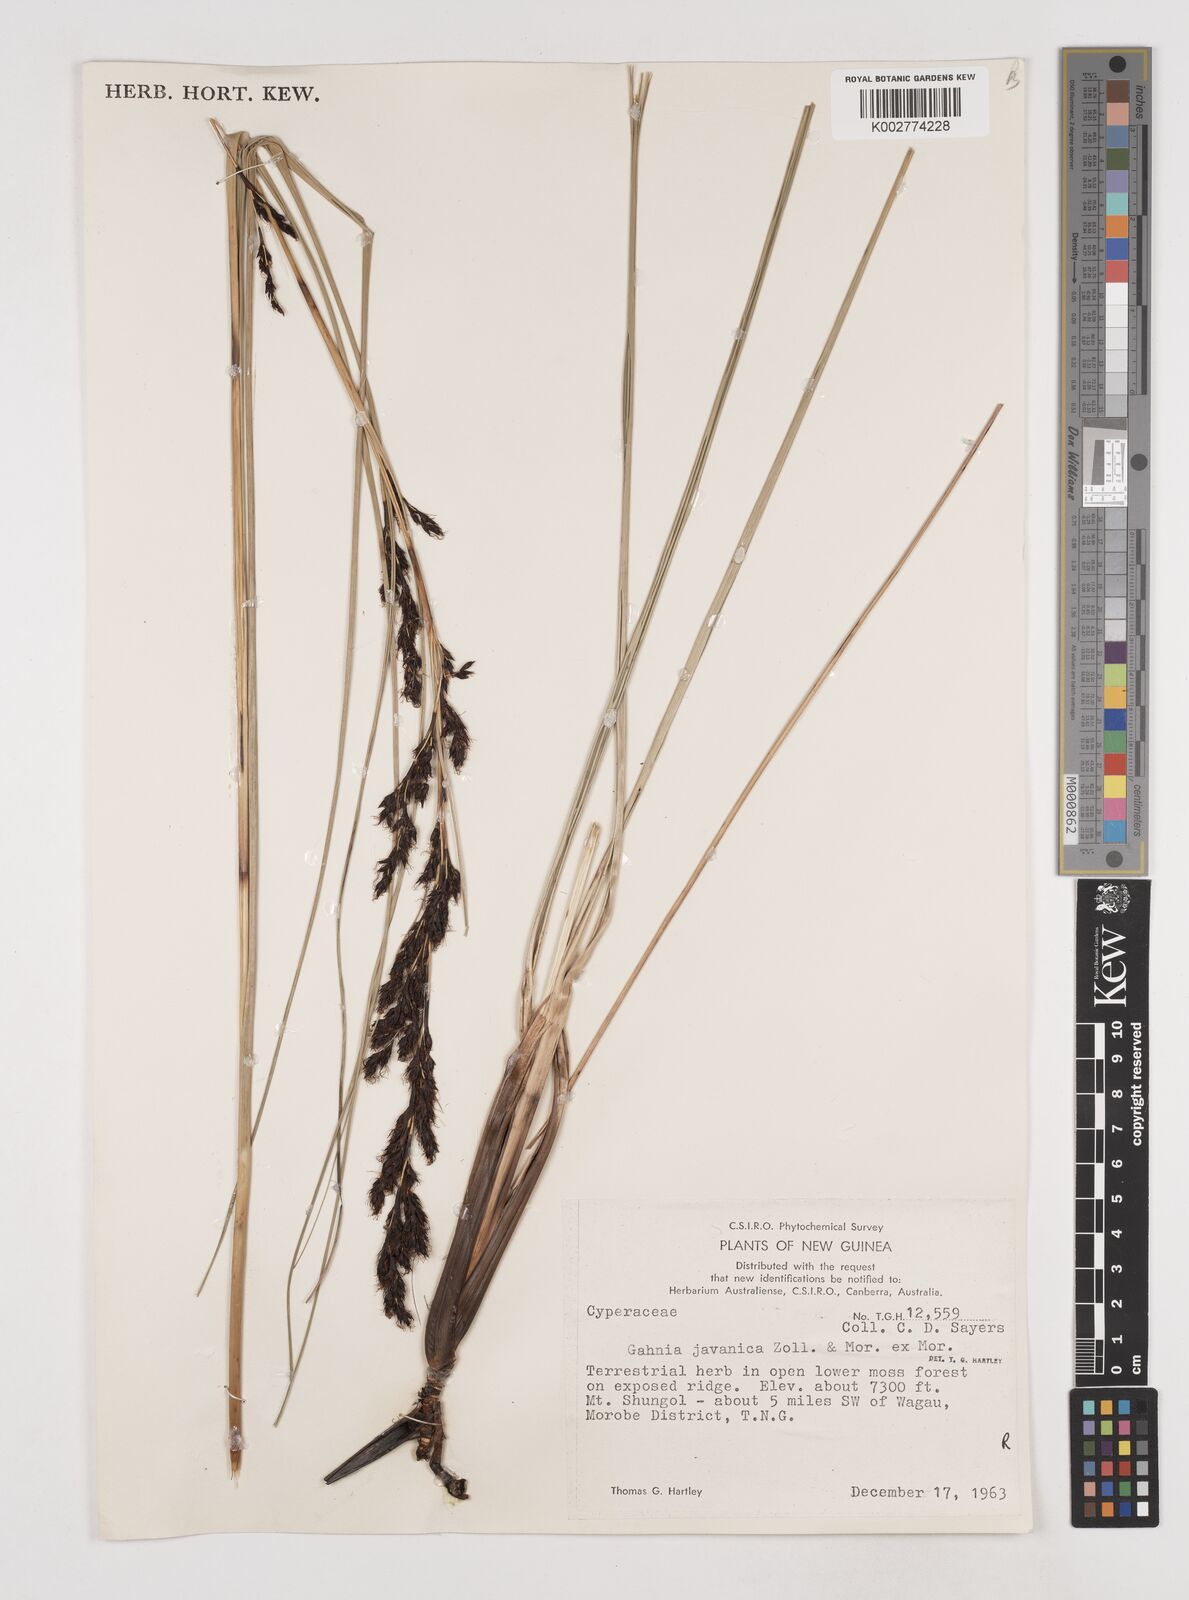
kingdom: Plantae
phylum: Tracheophyta
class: Liliopsida
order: Poales
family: Cyperaceae
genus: Gahnia
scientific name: Gahnia javanica
